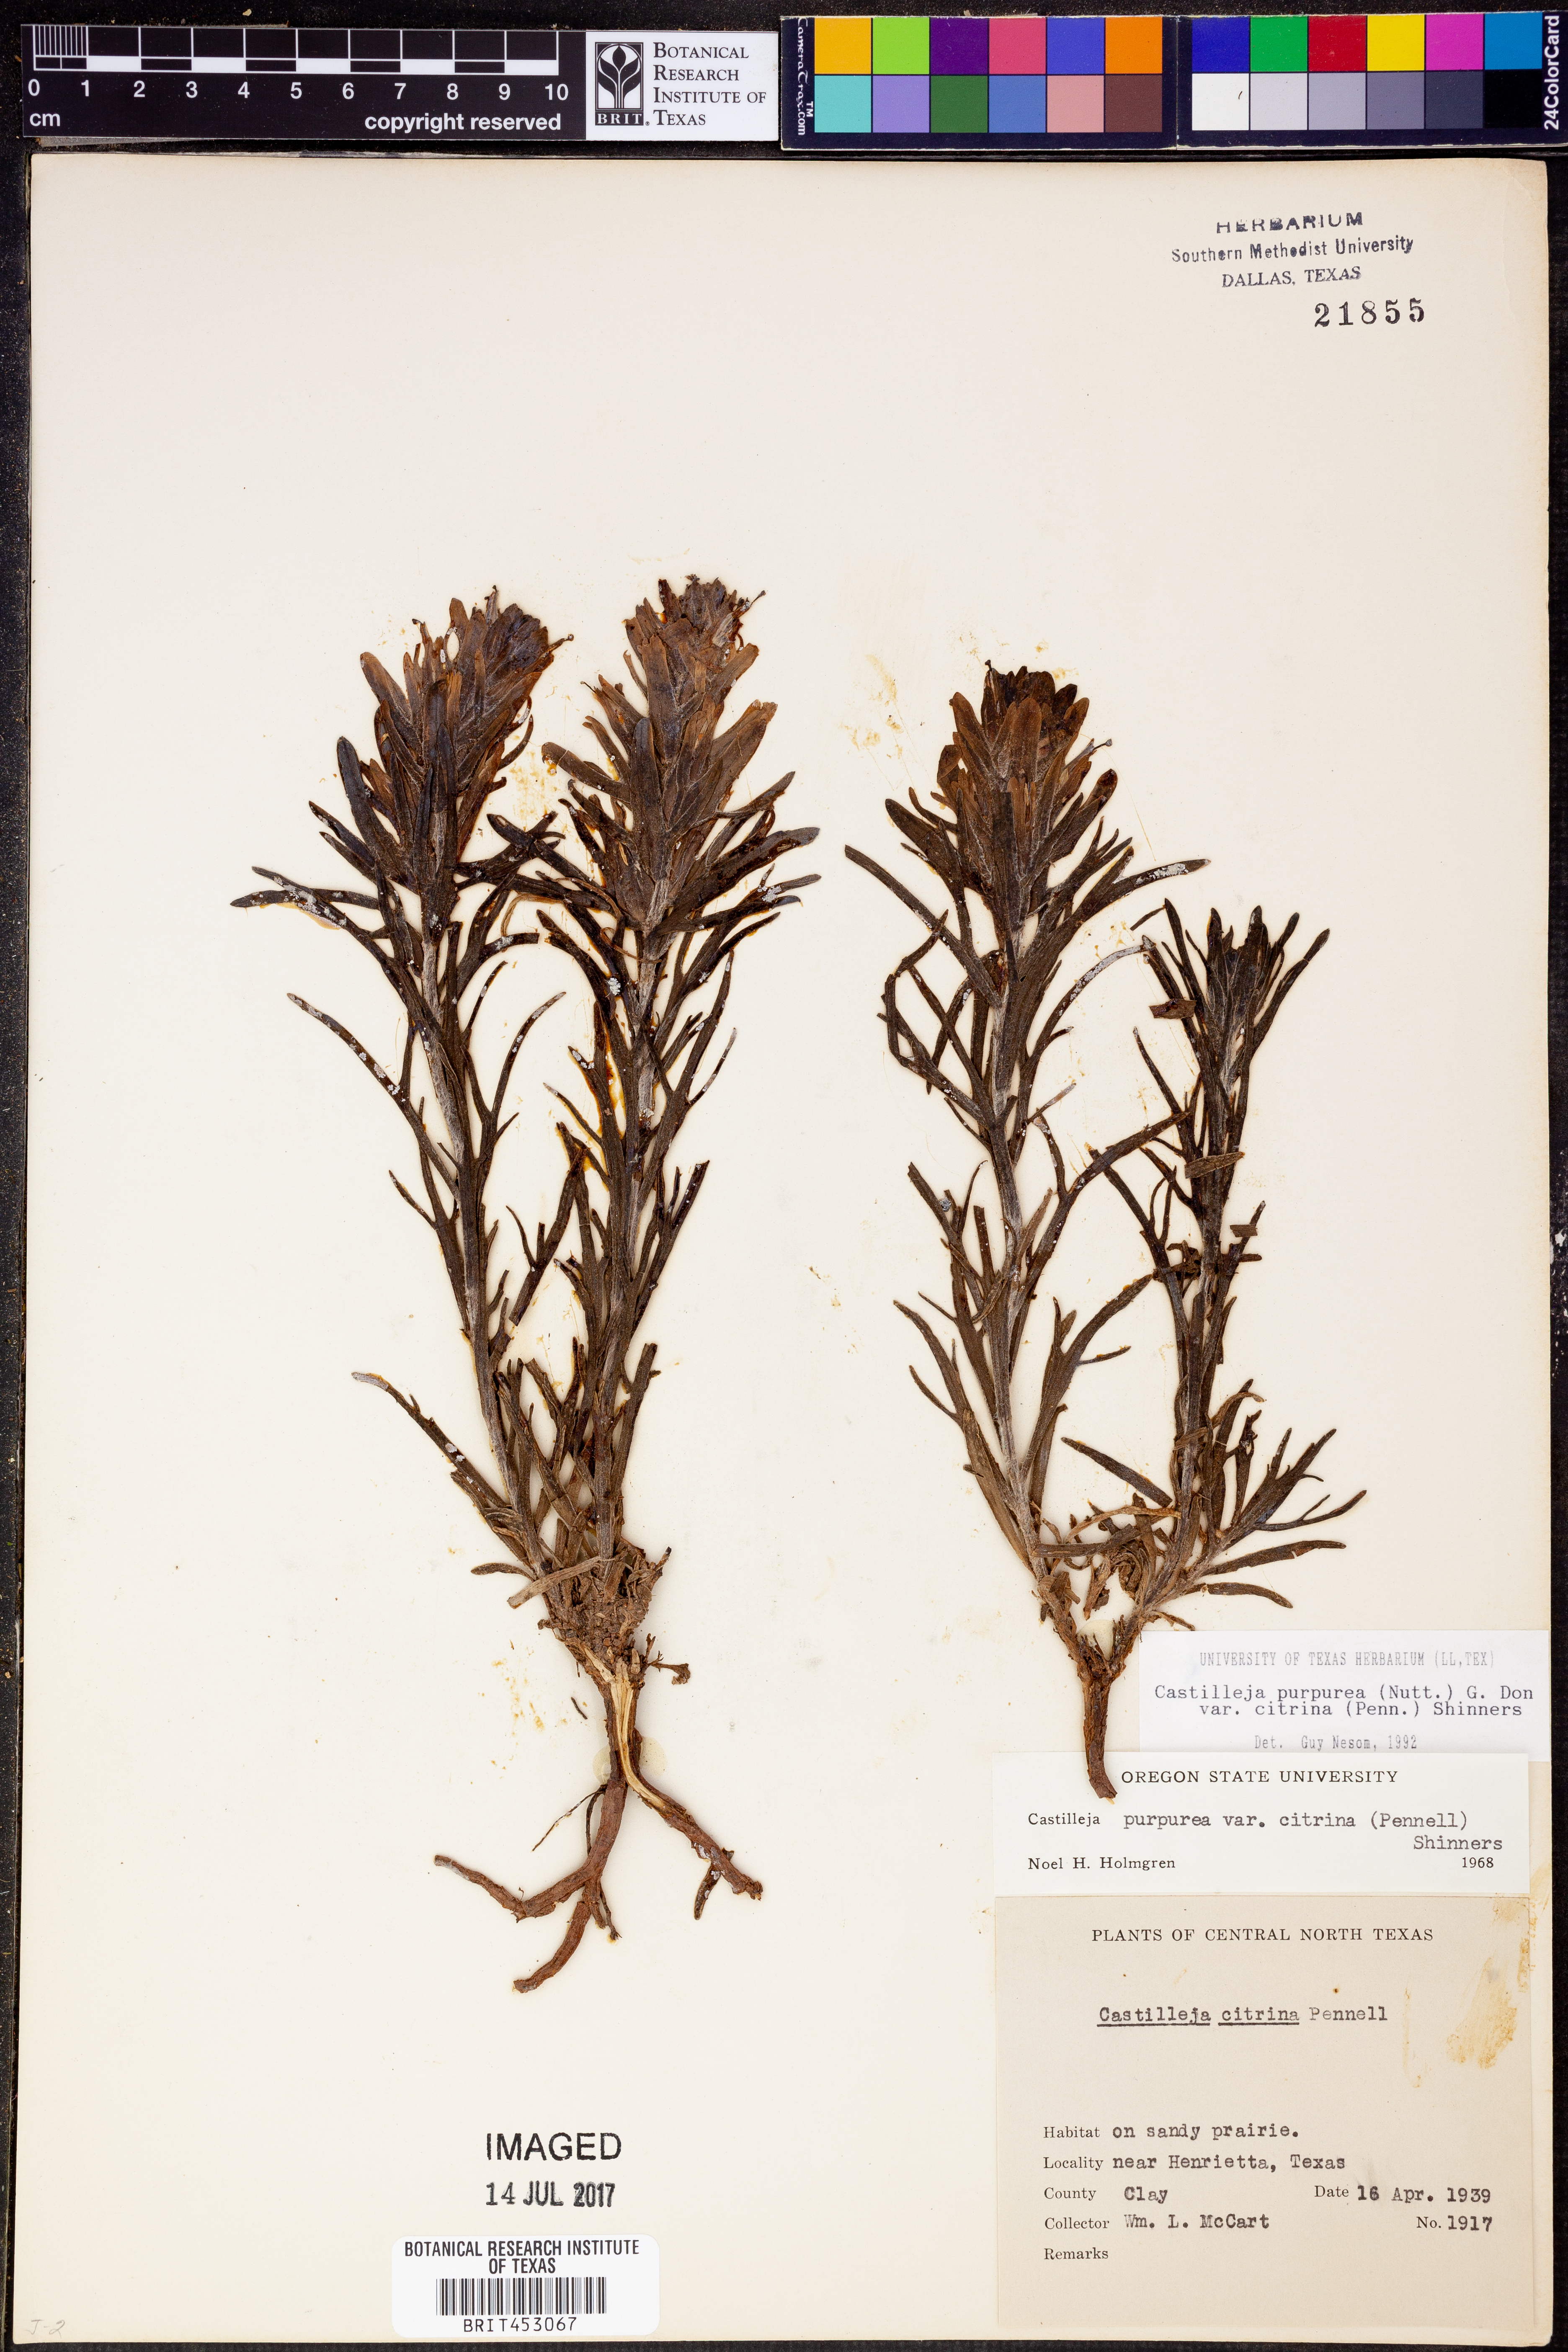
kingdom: Plantae
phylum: Tracheophyta
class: Magnoliopsida
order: Lamiales
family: Orobanchaceae
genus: Castilleja
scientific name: Castilleja citrina
